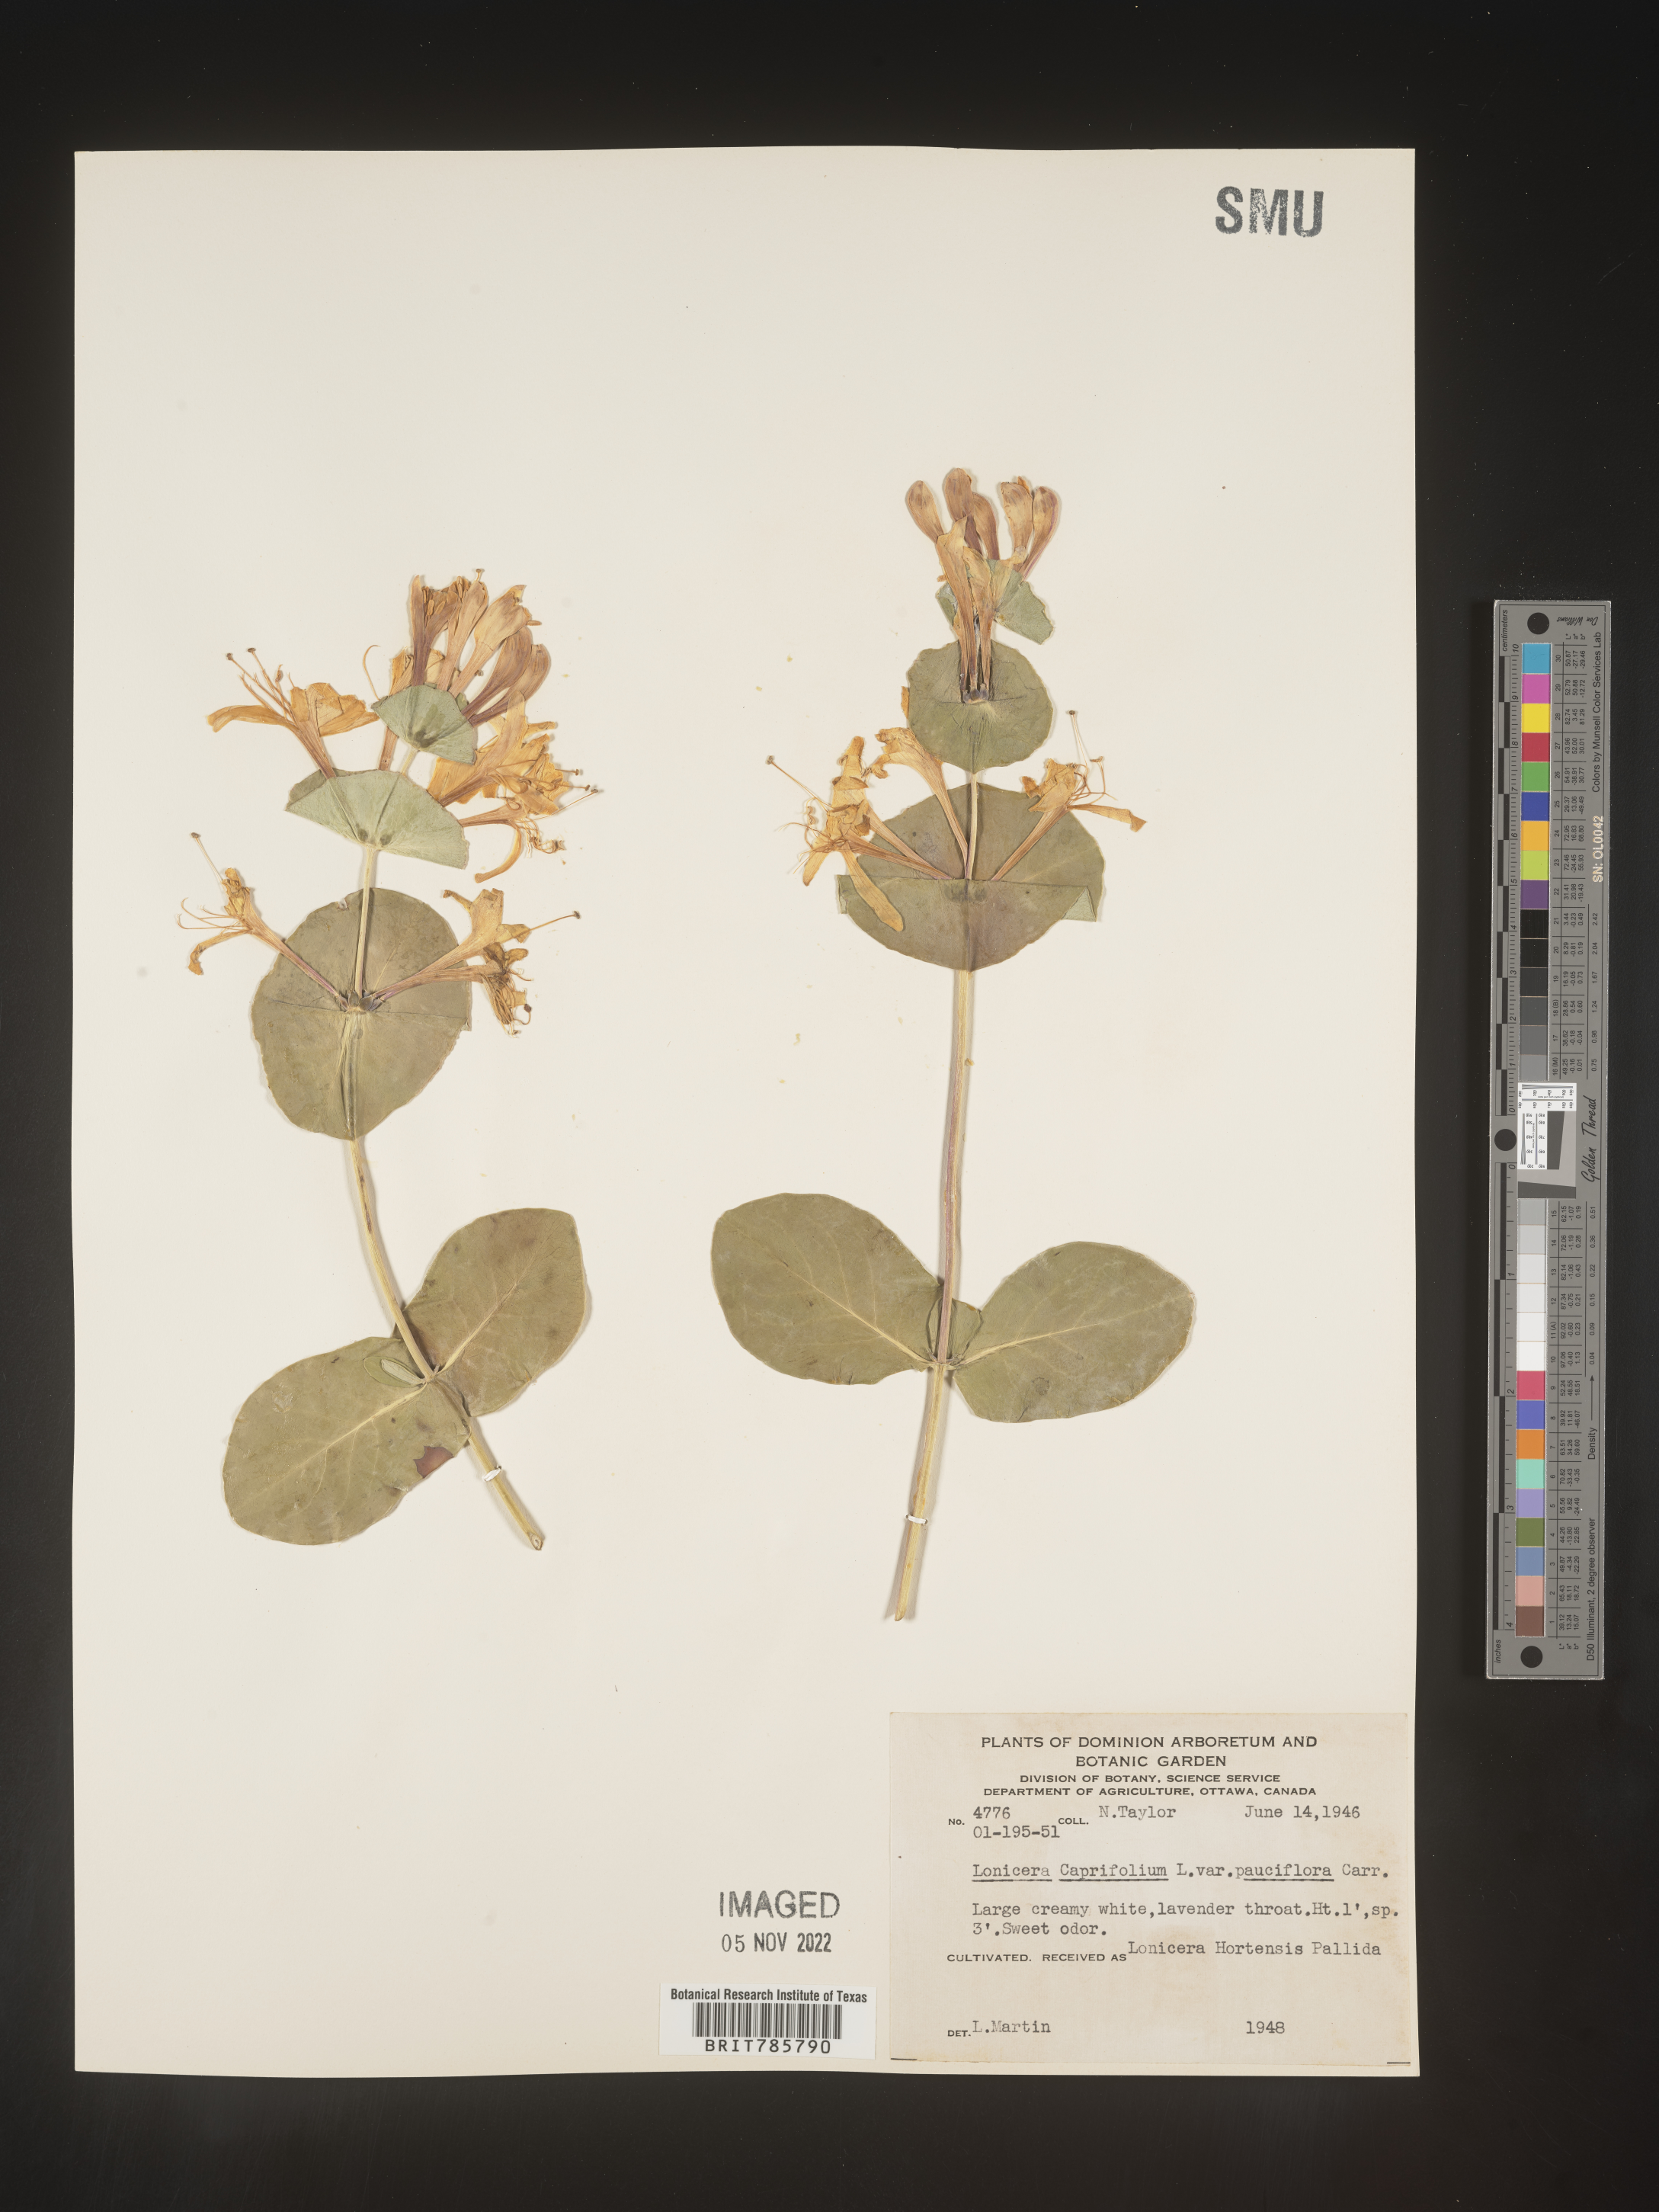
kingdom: Plantae
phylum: Tracheophyta
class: Magnoliopsida
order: Dipsacales
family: Caprifoliaceae
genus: Lonicera
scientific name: Lonicera
